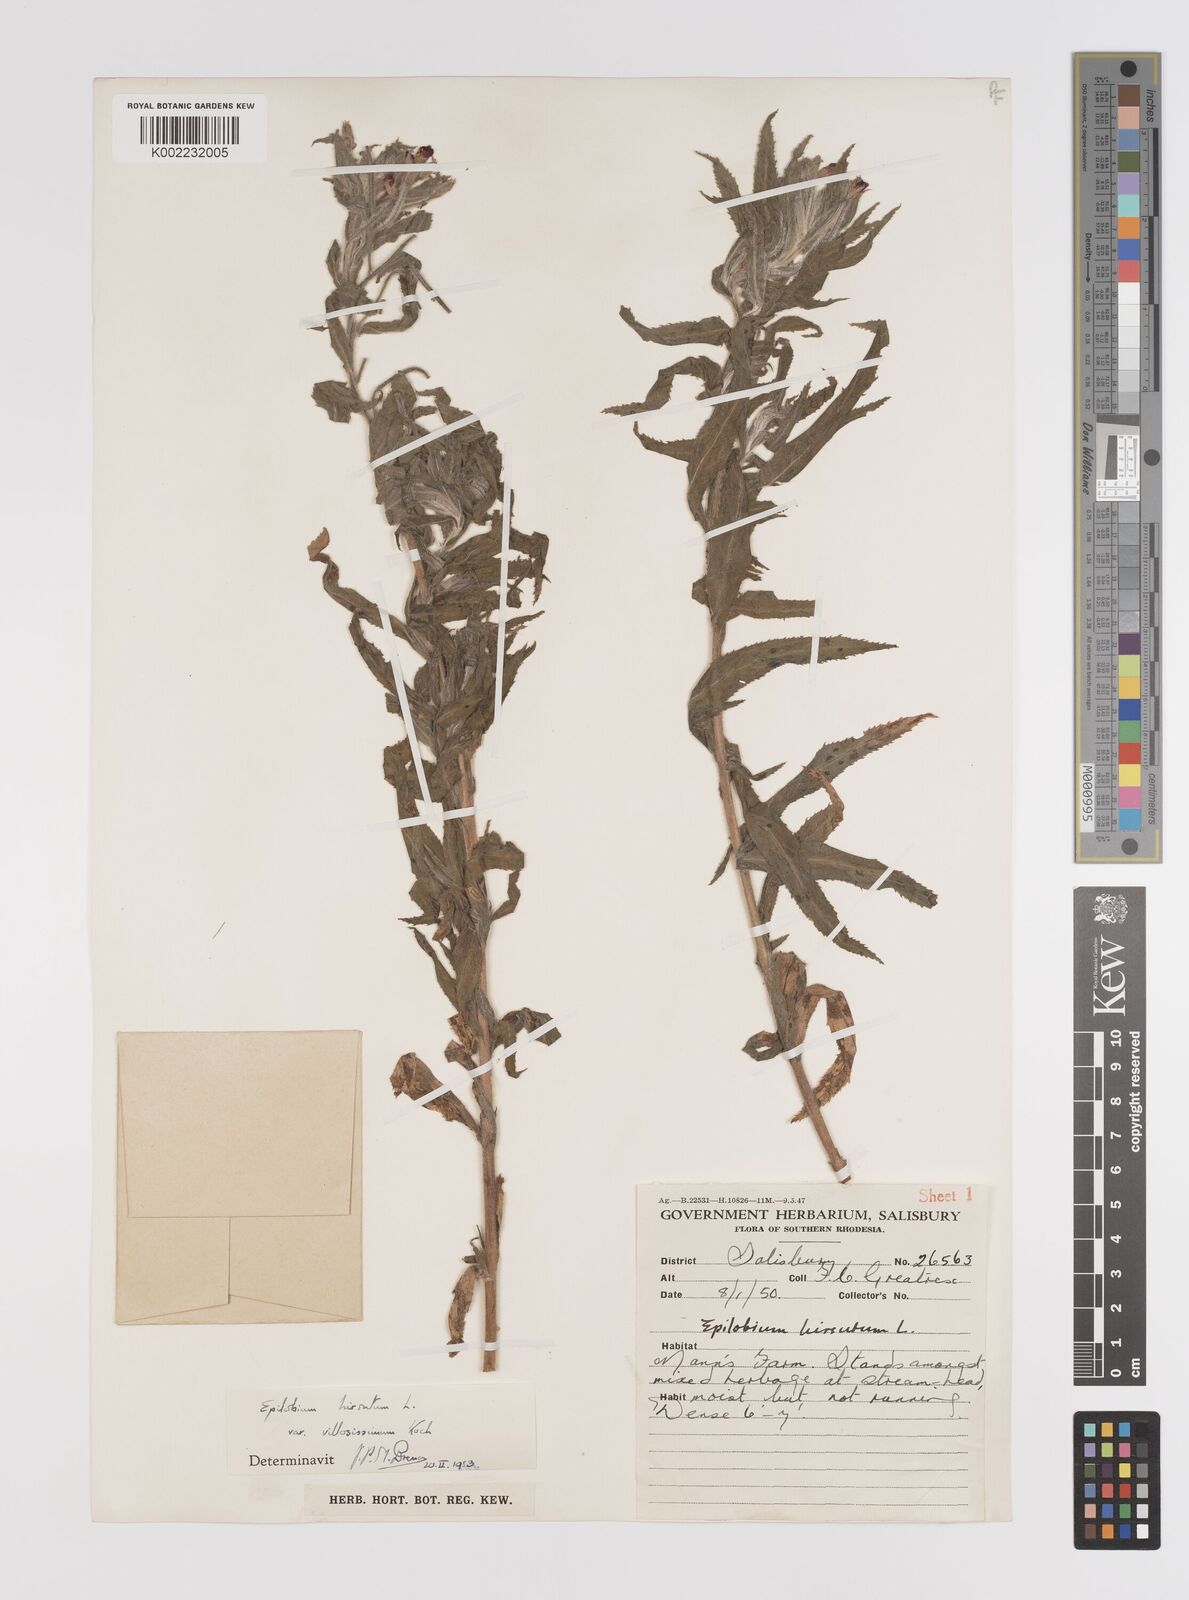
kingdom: Plantae
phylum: Tracheophyta
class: Magnoliopsida
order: Myrtales
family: Onagraceae
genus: Epilobium
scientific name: Epilobium hirsutum
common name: Great willowherb
